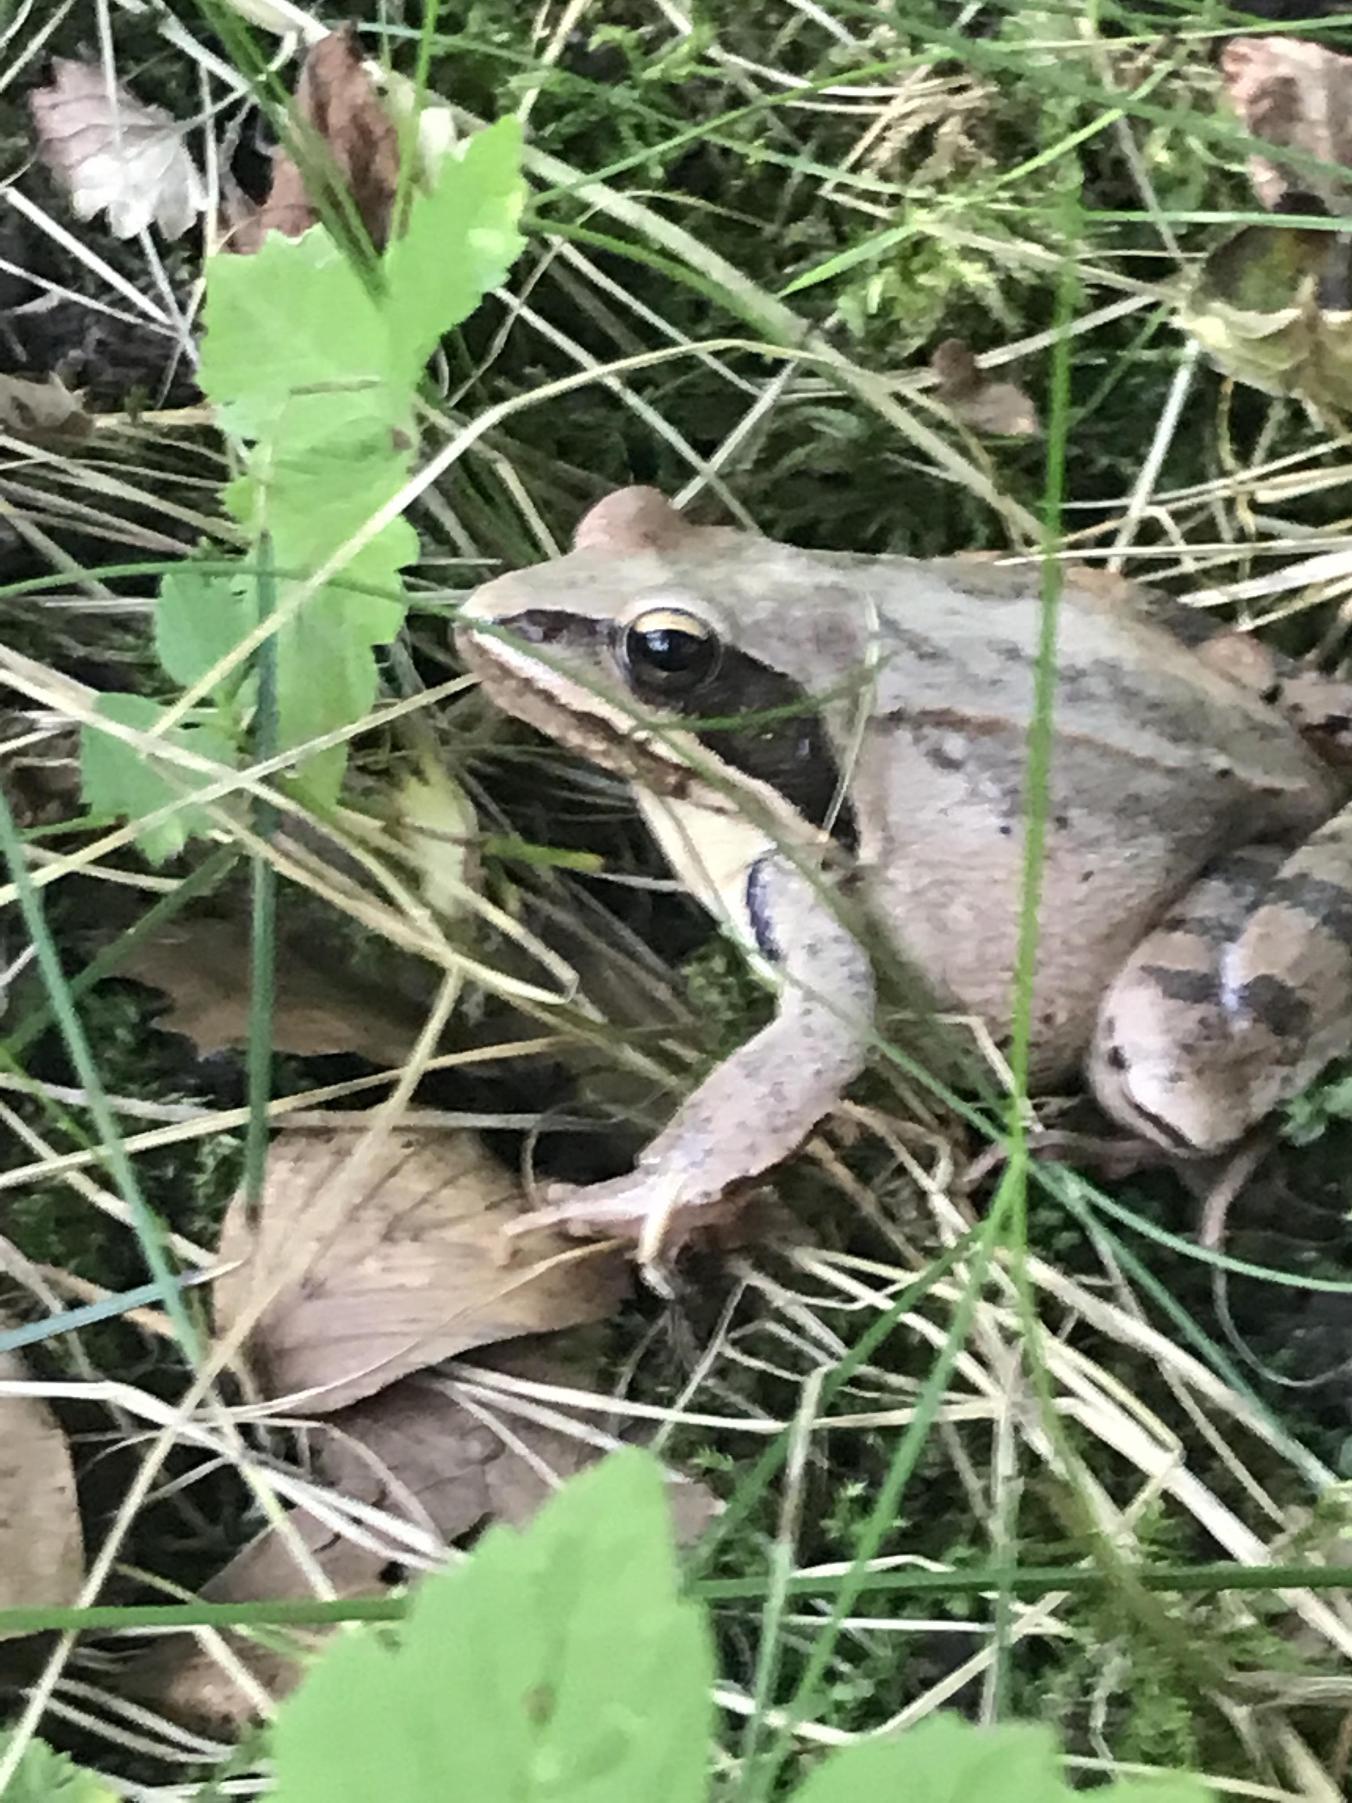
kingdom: Animalia
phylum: Chordata
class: Amphibia
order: Anura
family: Ranidae
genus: Rana
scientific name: Rana dalmatina
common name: Springfrø
